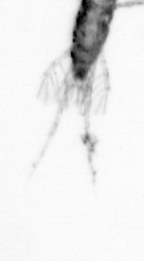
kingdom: Animalia
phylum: Arthropoda
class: Copepoda
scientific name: Copepoda
